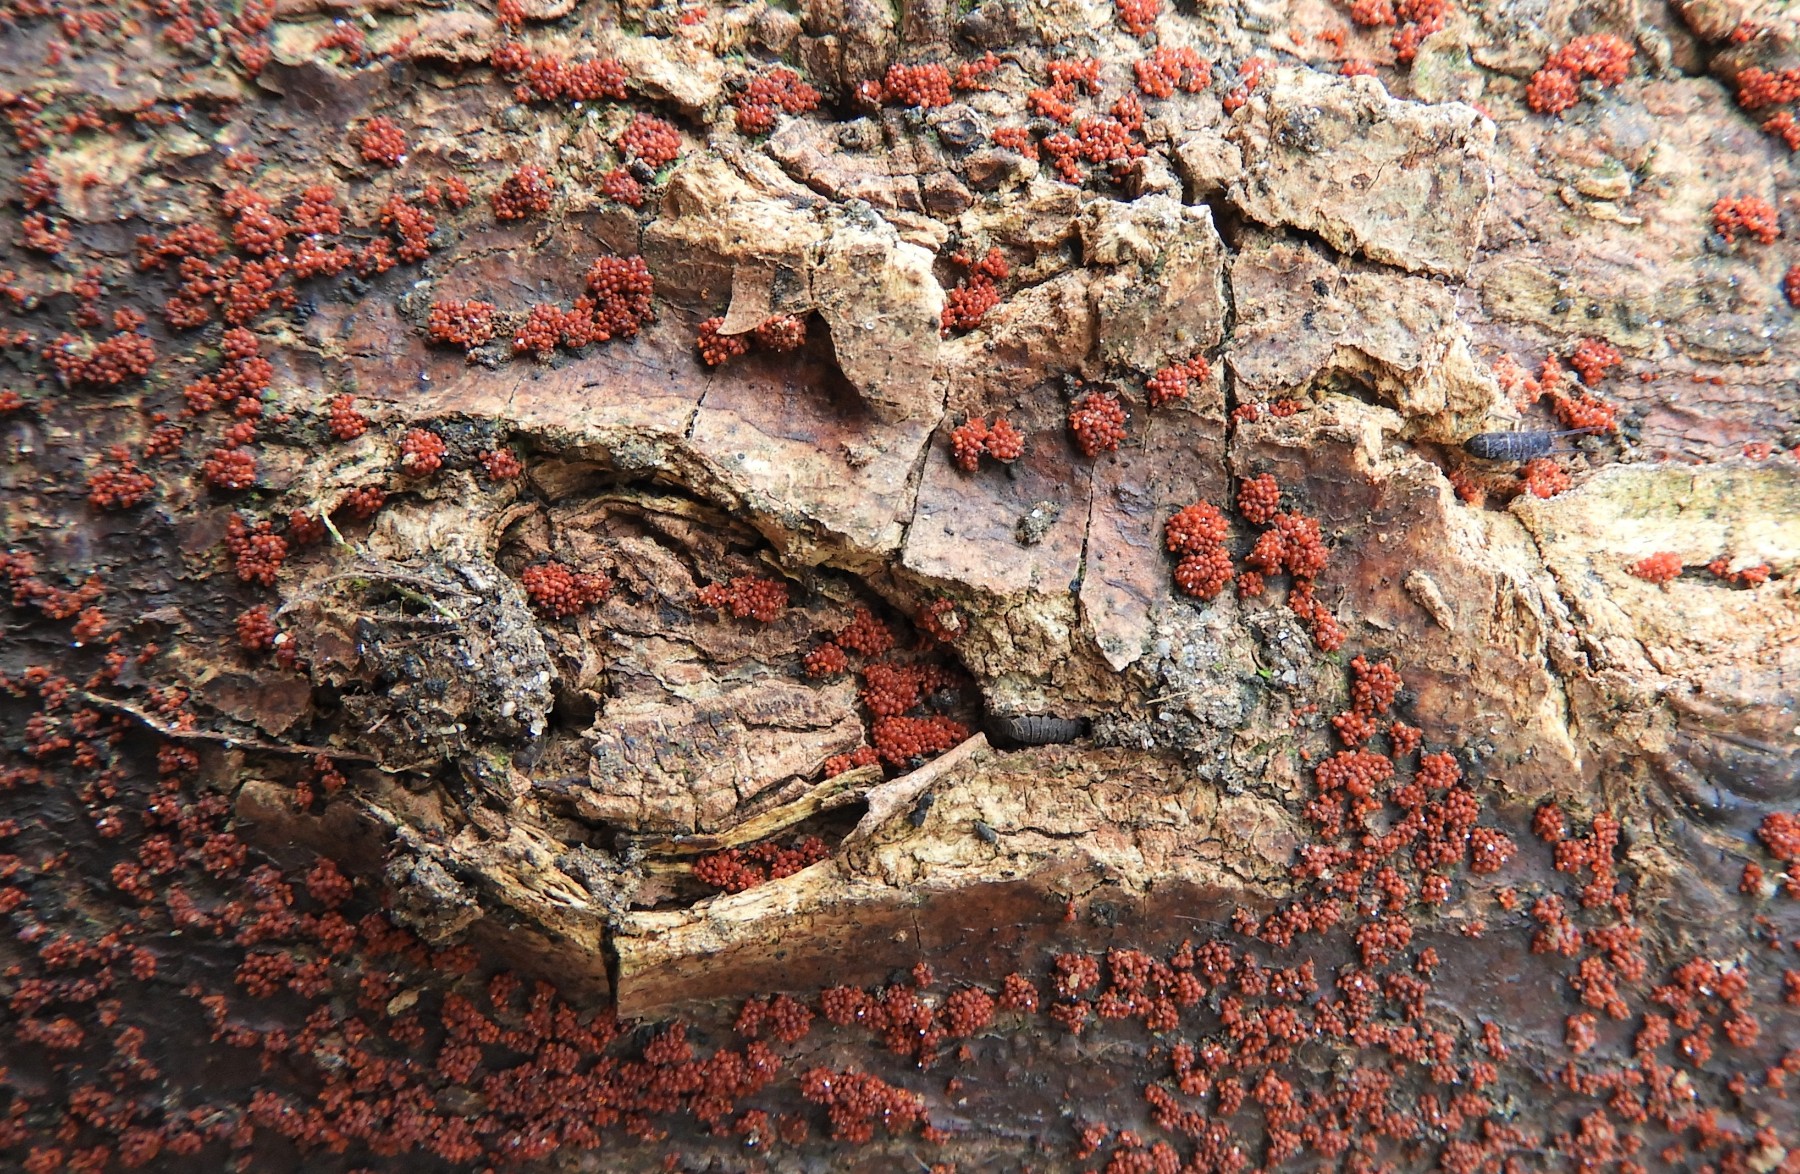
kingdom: Fungi
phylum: Ascomycota
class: Sordariomycetes
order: Hypocreales
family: Nectriaceae
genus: Nectria
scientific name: Nectria cinnabarina
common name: almindelig cinnobersvamp
